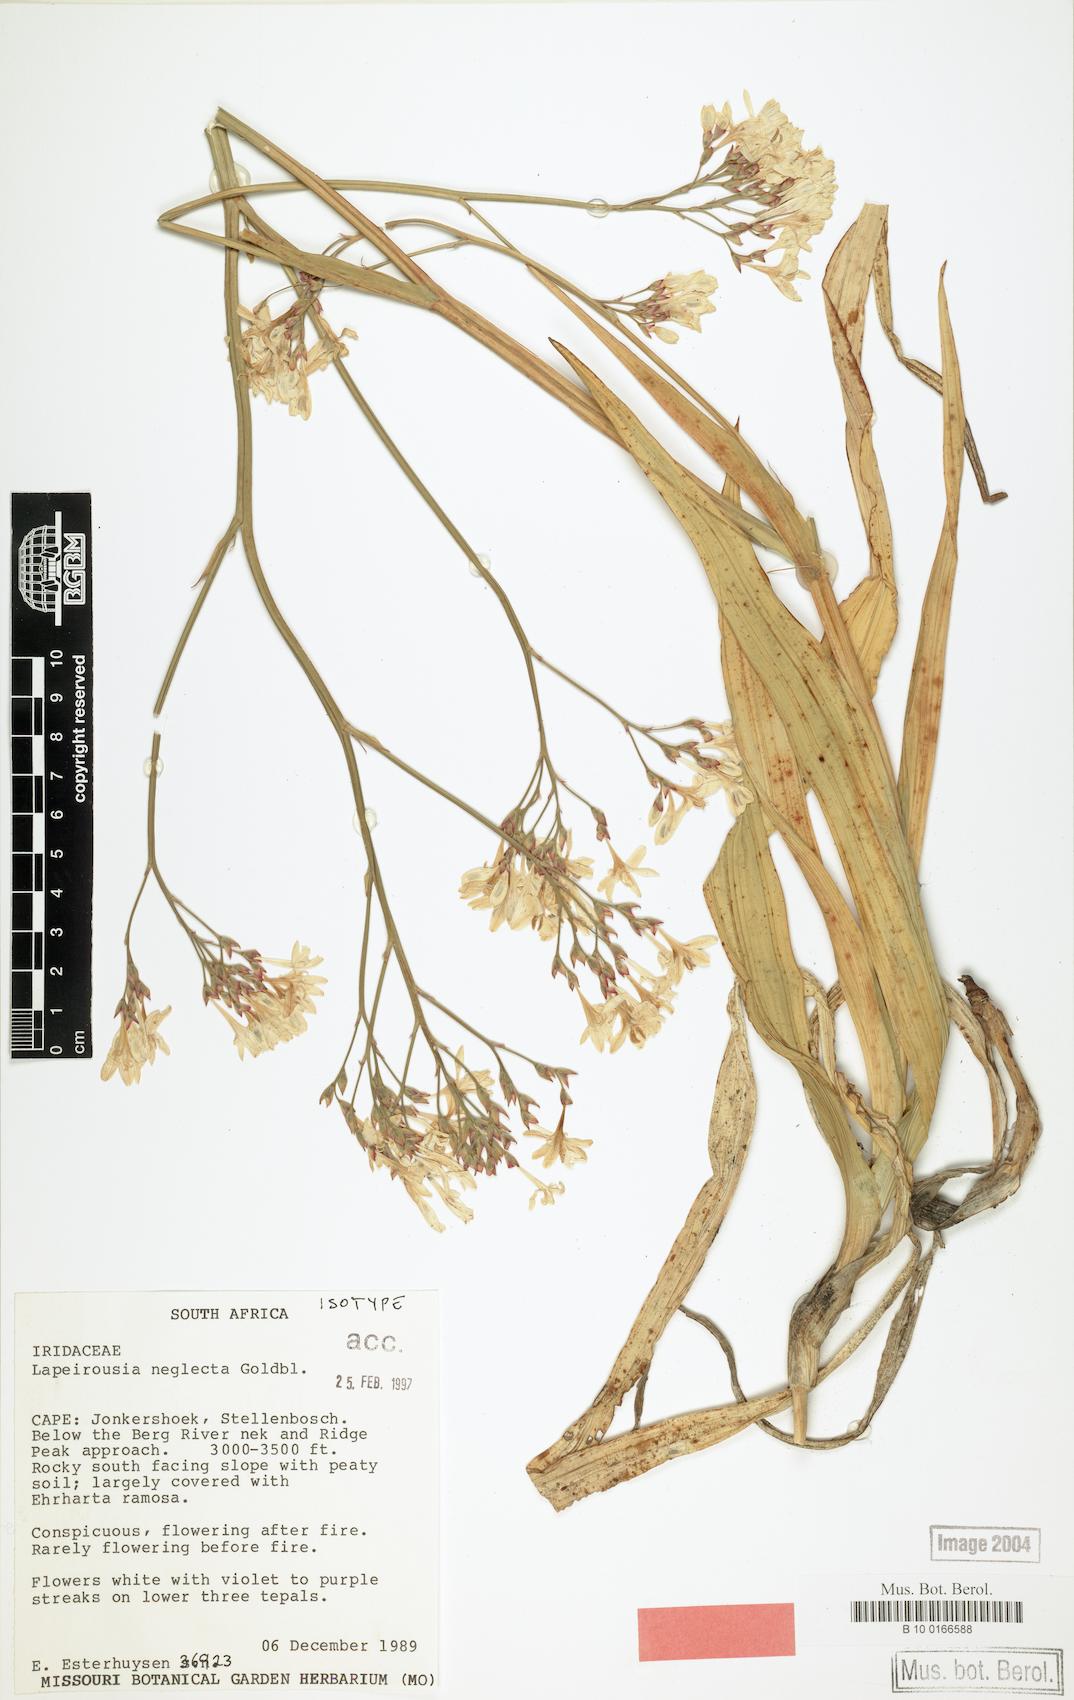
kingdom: Plantae
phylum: Tracheophyta
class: Liliopsida
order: Asparagales
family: Iridaceae
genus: Schizorhiza
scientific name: Schizorhiza neglecta
